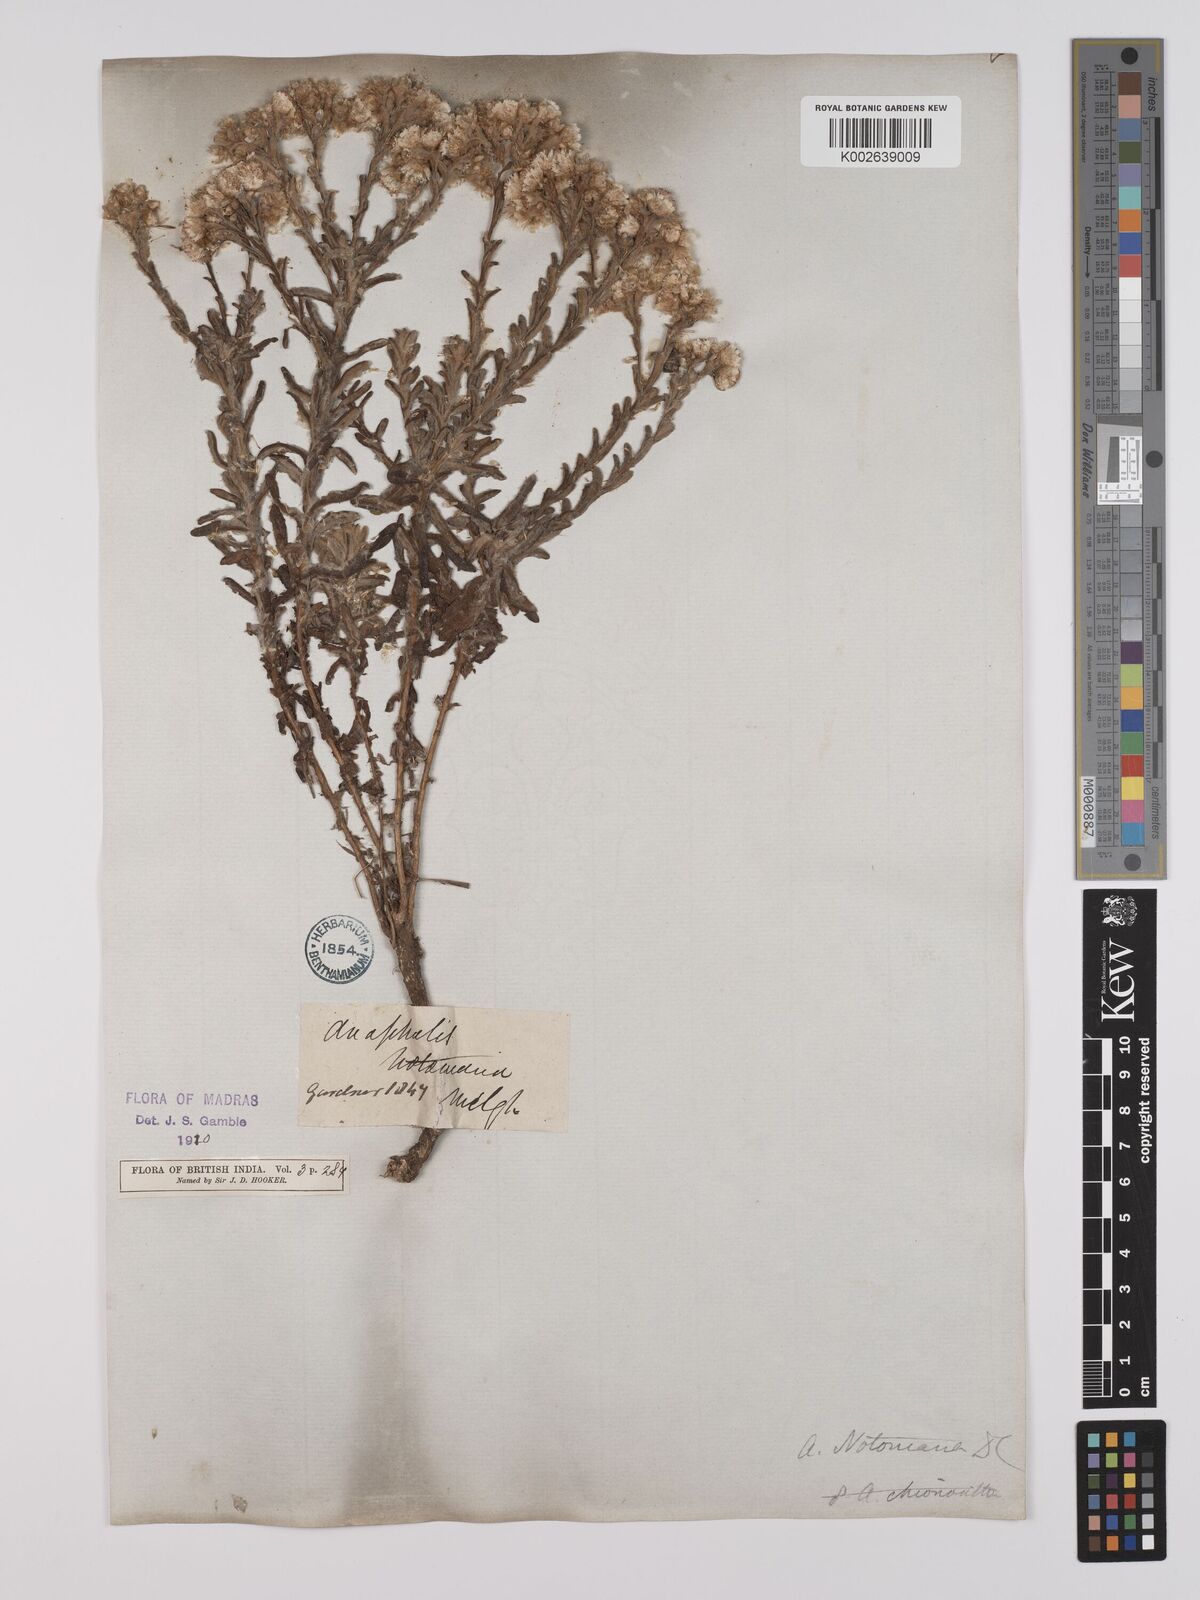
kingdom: Plantae
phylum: Tracheophyta
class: Magnoliopsida
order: Asterales
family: Asteraceae
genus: Anaphalis
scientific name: Anaphalis notoniana
